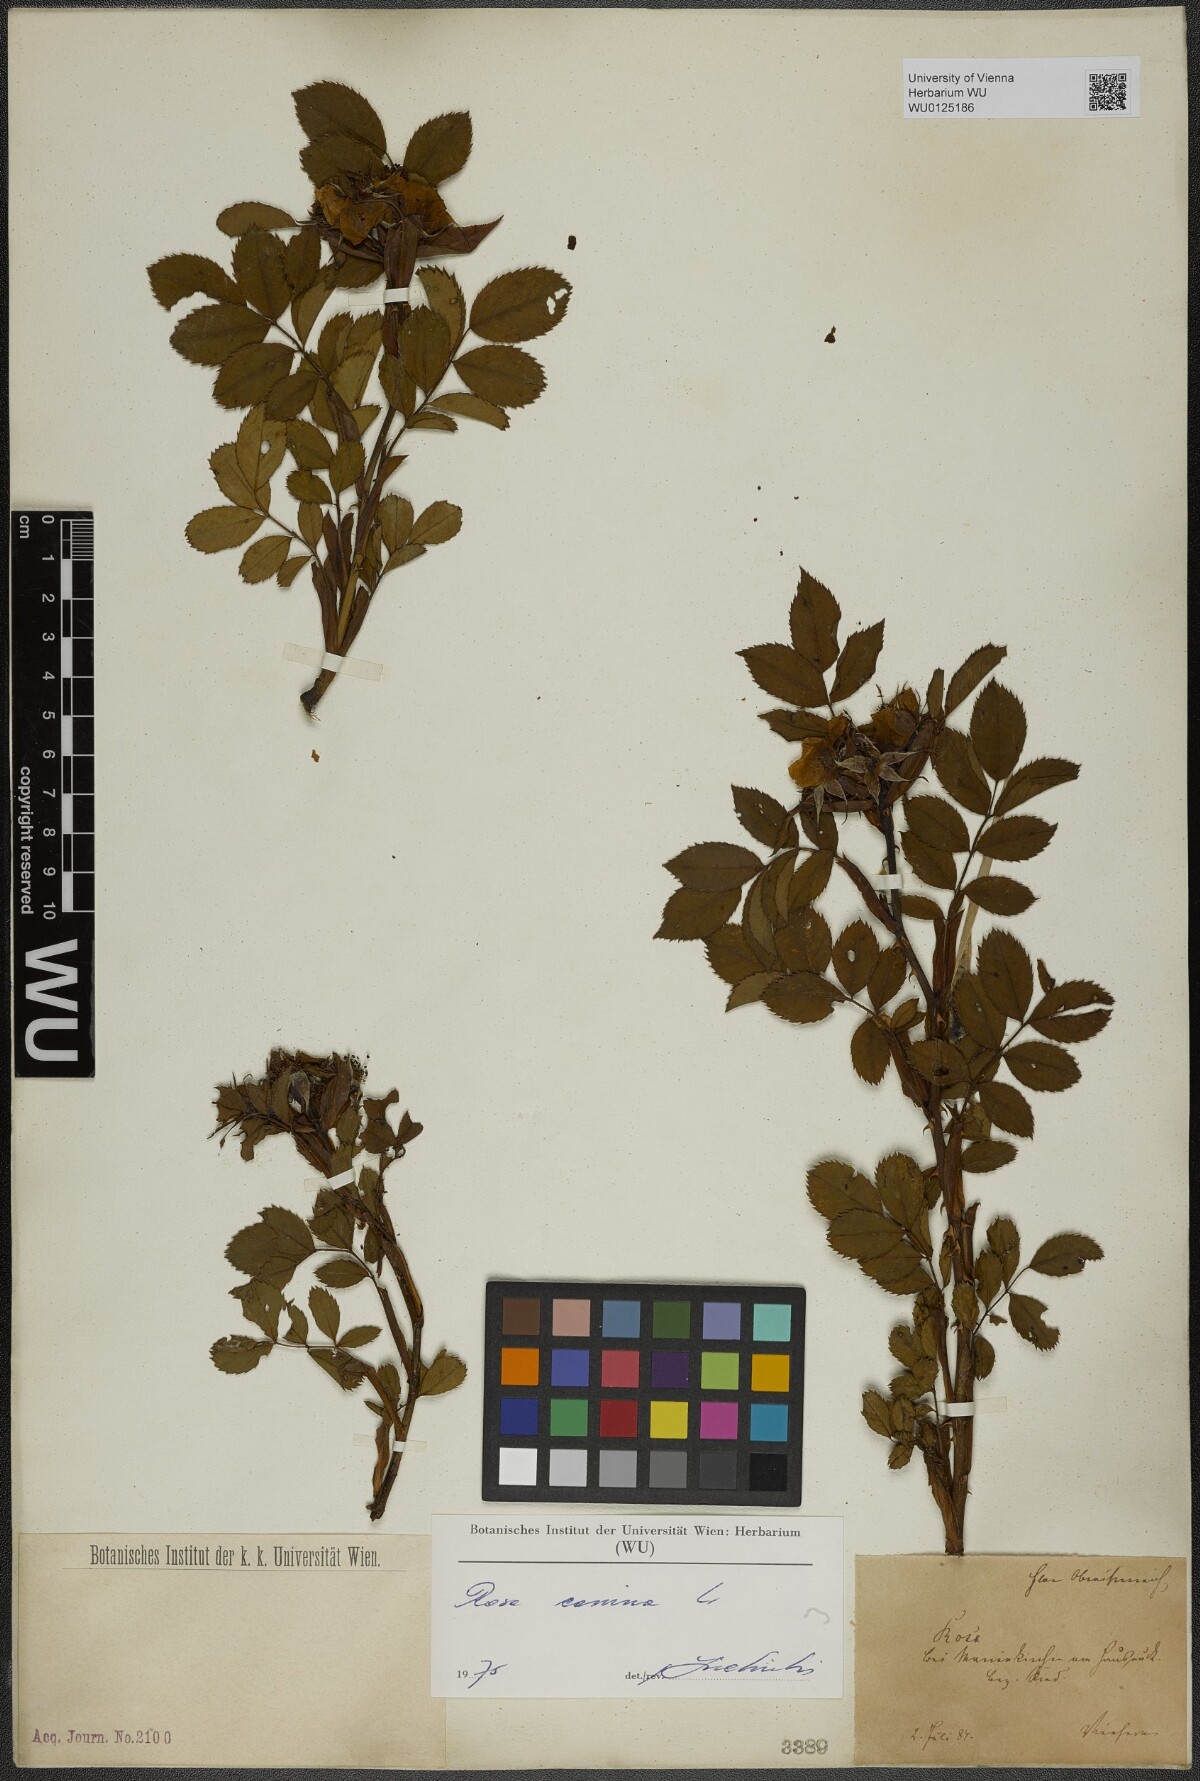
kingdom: Plantae
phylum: Tracheophyta
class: Magnoliopsida
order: Rosales
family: Rosaceae
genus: Rosa
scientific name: Rosa canina
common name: Dog rose
